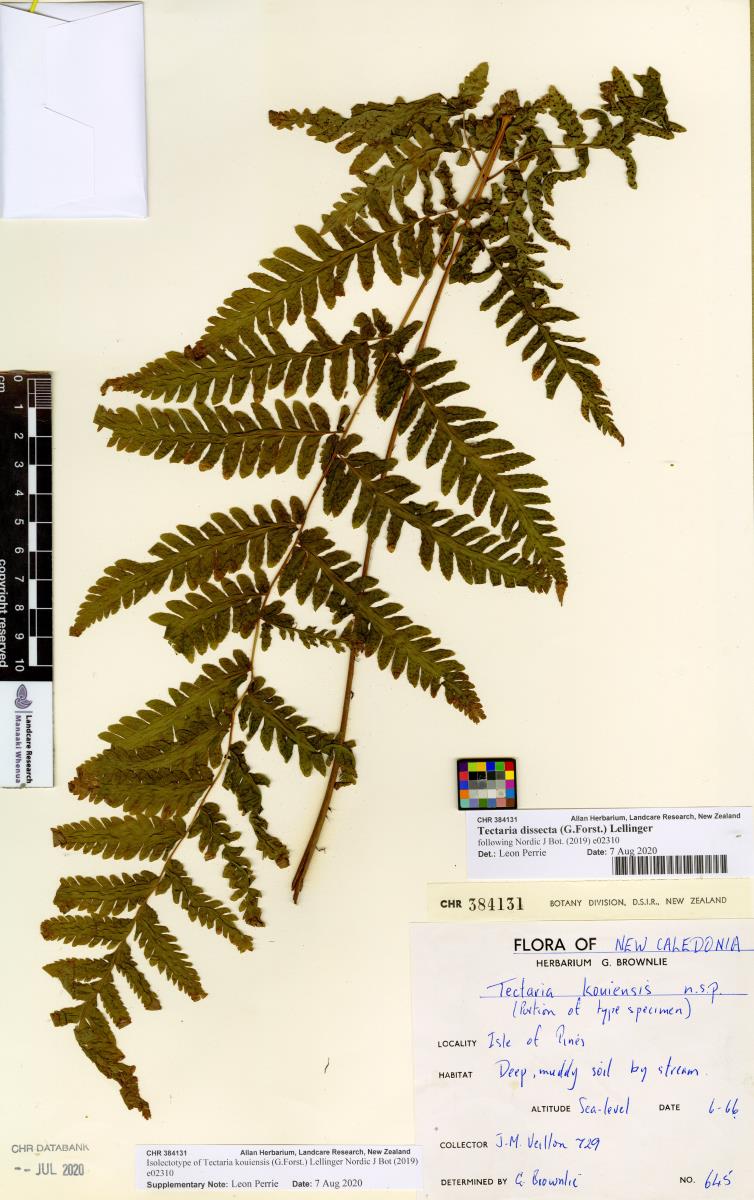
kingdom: Plantae
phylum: Tracheophyta
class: Polypodiopsida
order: Polypodiales
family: Tectariaceae
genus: Tectaria
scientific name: Tectaria kouniensis
